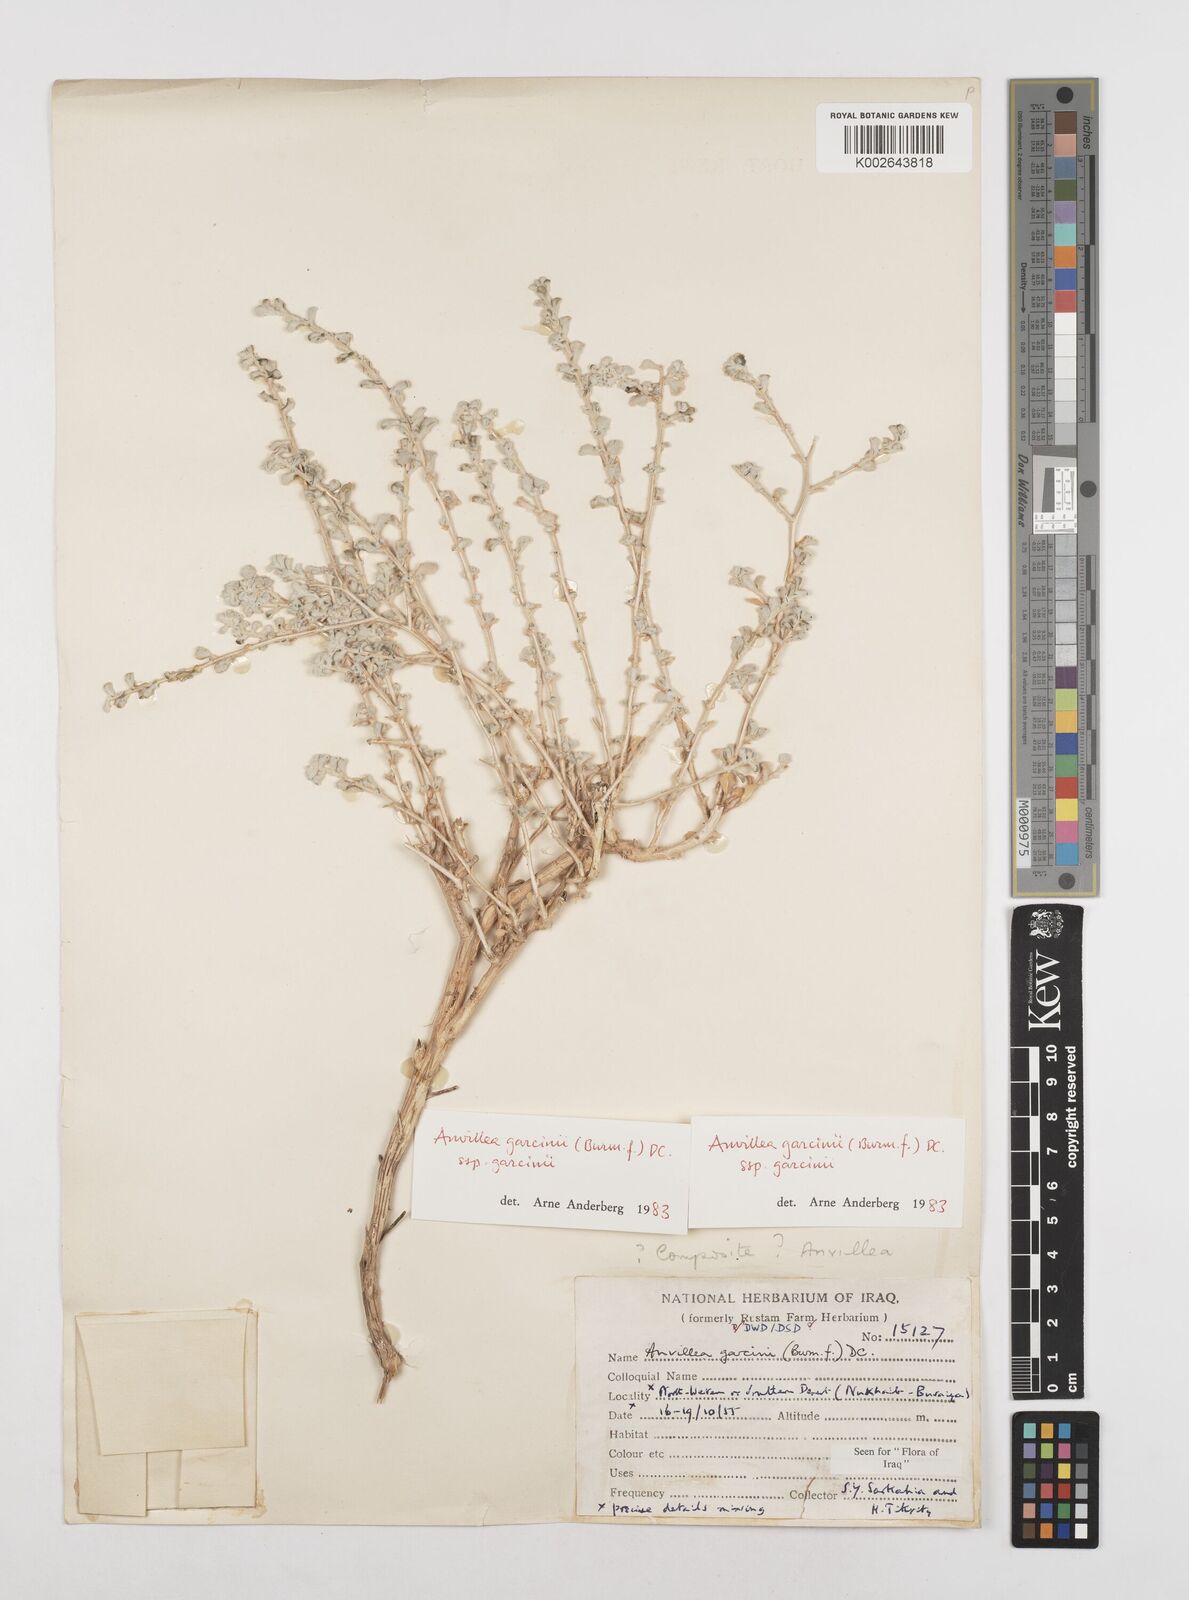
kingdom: Plantae
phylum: Tracheophyta
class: Magnoliopsida
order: Asterales
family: Asteraceae
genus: Anvillea
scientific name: Anvillea garcinii
